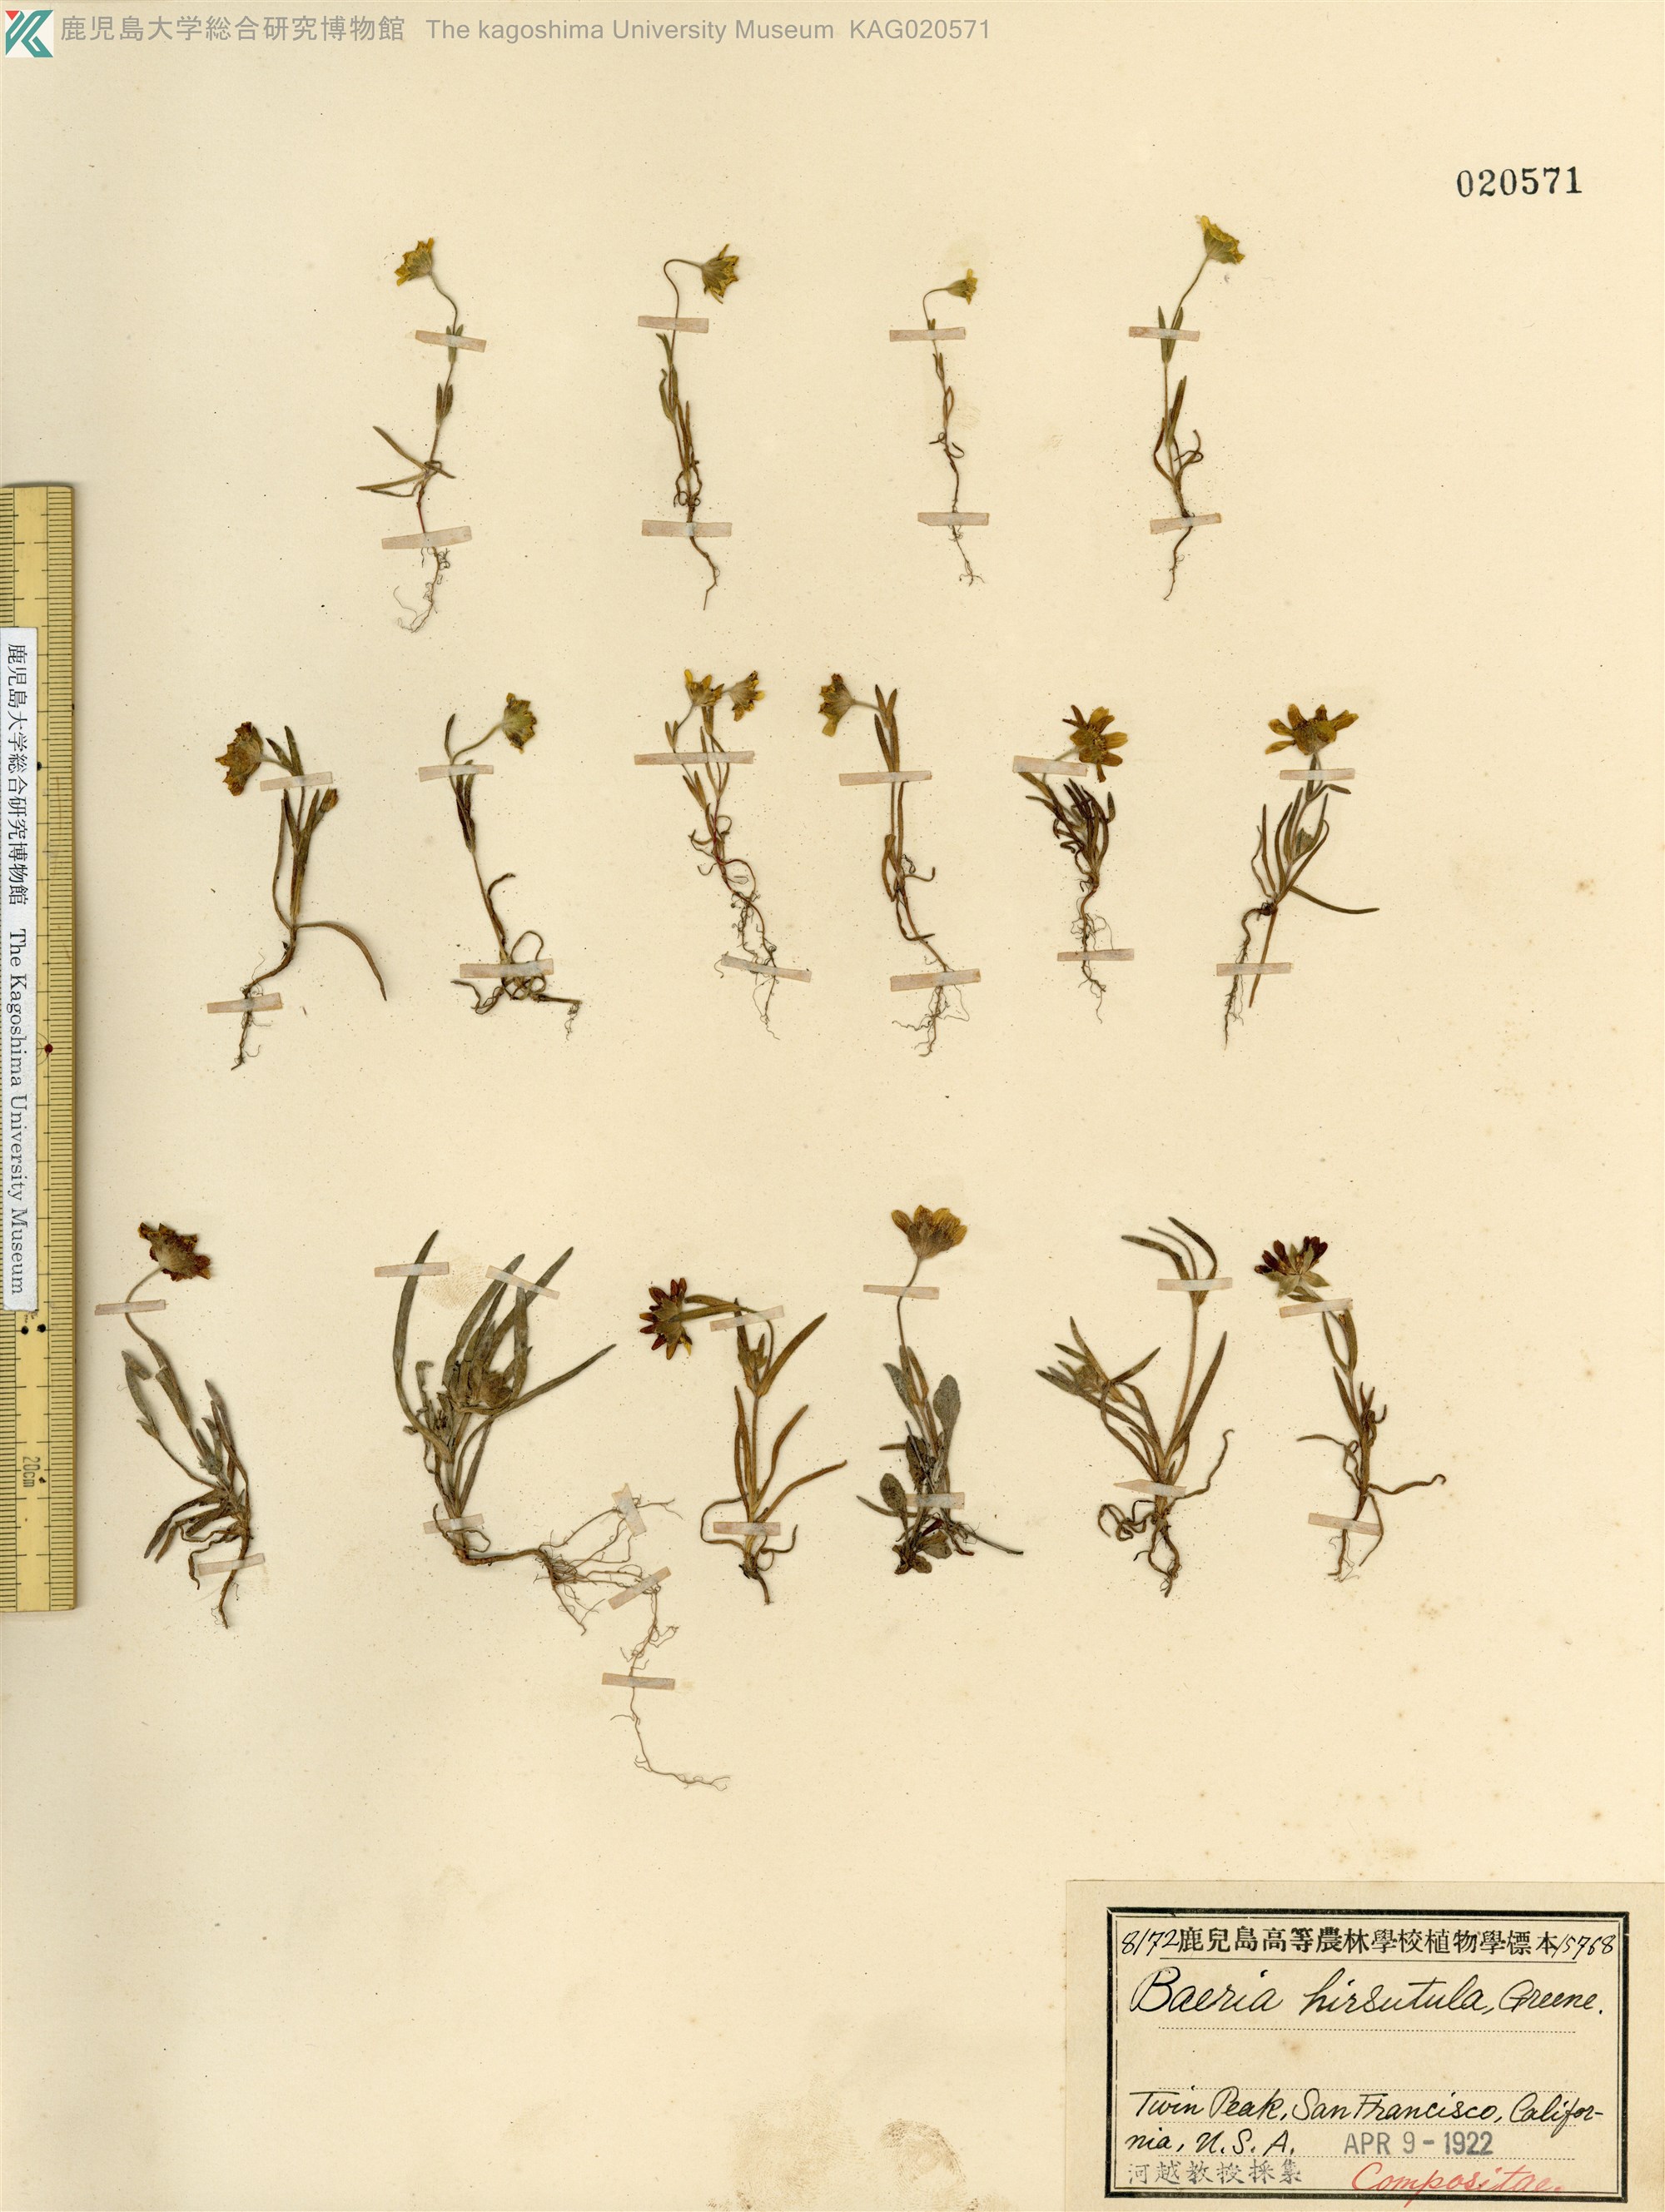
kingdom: Plantae
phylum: Tracheophyta
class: Magnoliopsida
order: Asterales
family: Asteraceae
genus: Lasthenia
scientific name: Lasthenia californica
